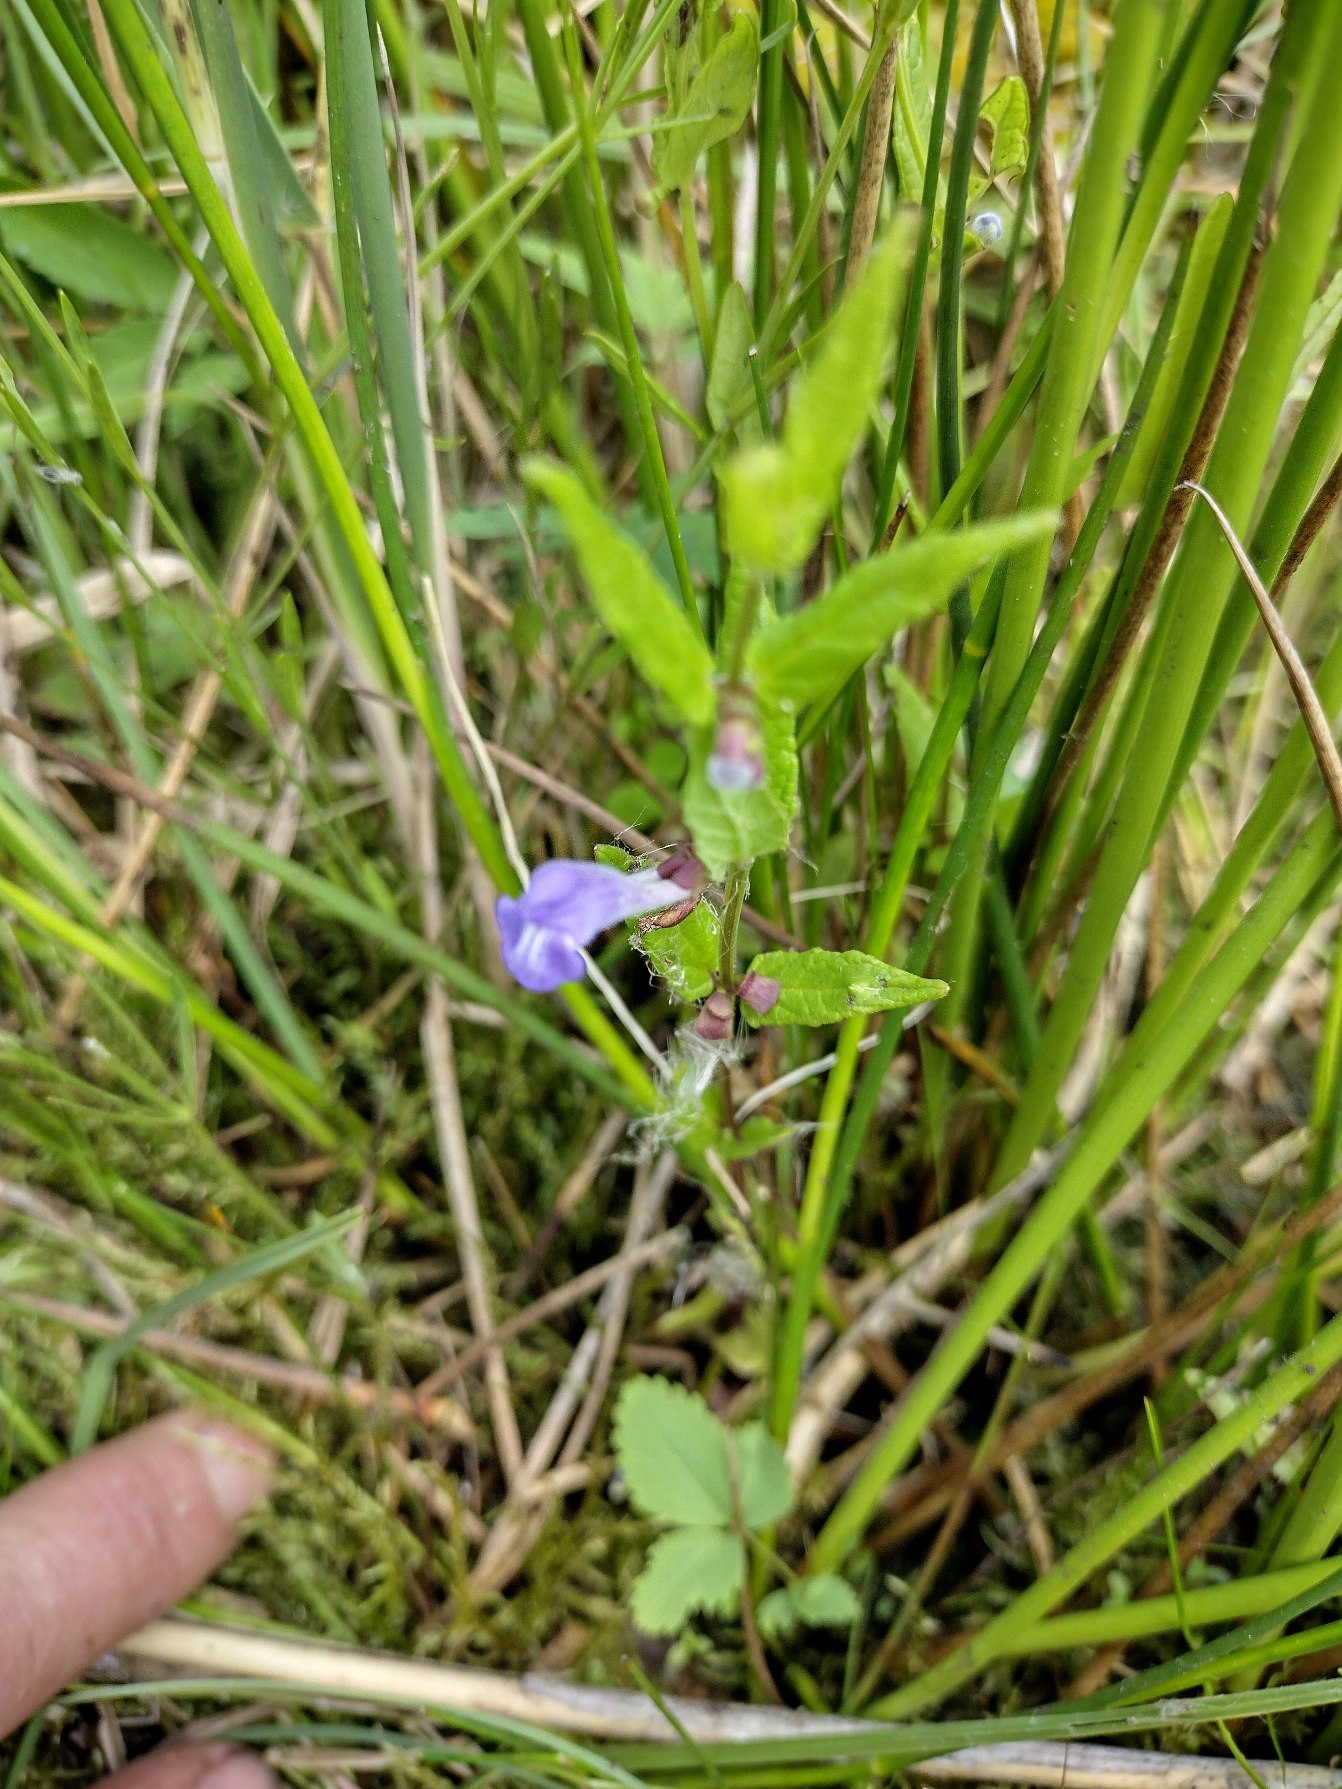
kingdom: Plantae
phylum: Tracheophyta
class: Magnoliopsida
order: Lamiales
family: Lamiaceae
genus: Scutellaria
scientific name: Scutellaria galericulata
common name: Almindelig skjolddrager
